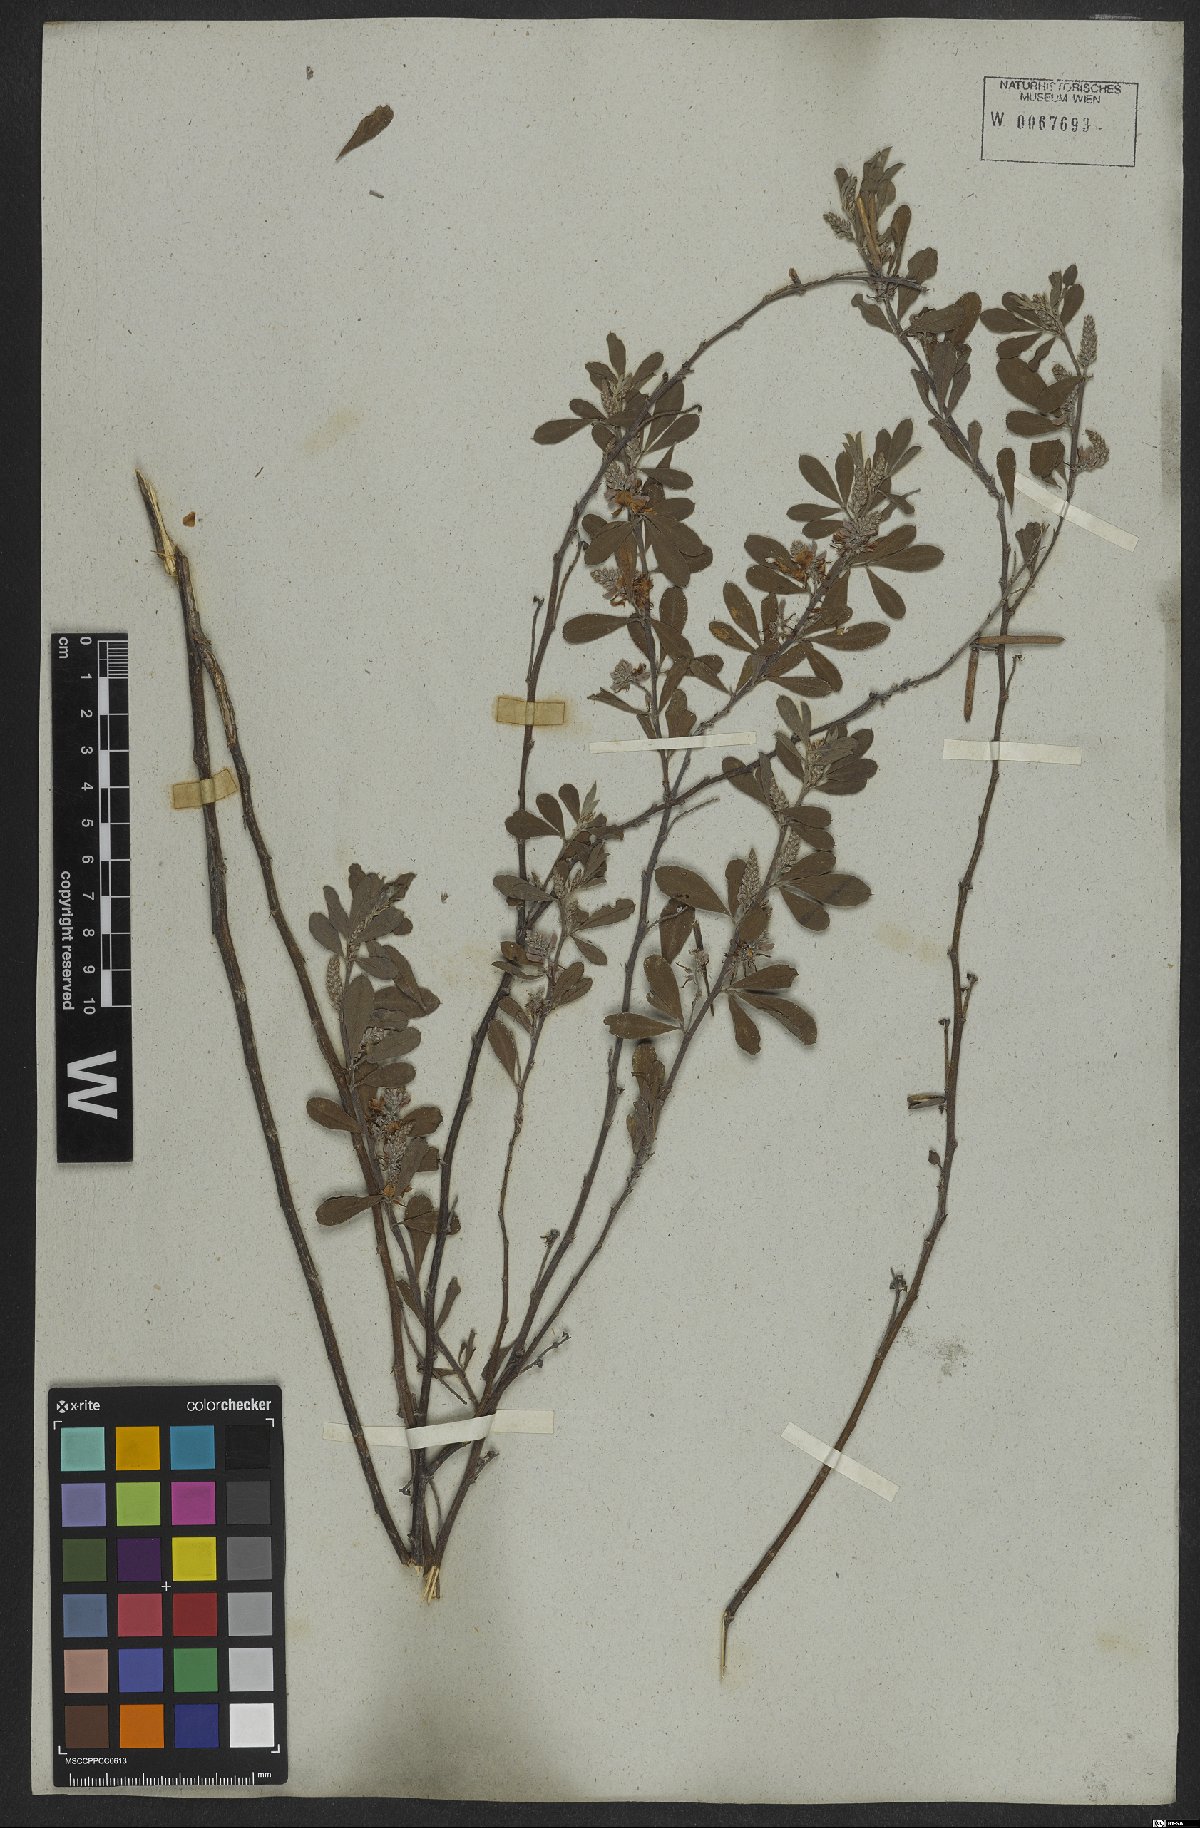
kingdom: Plantae
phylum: Tracheophyta
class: Magnoliopsida
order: Fabales
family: Fabaceae
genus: Indigofera
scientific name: Indigofera lespedezioides
